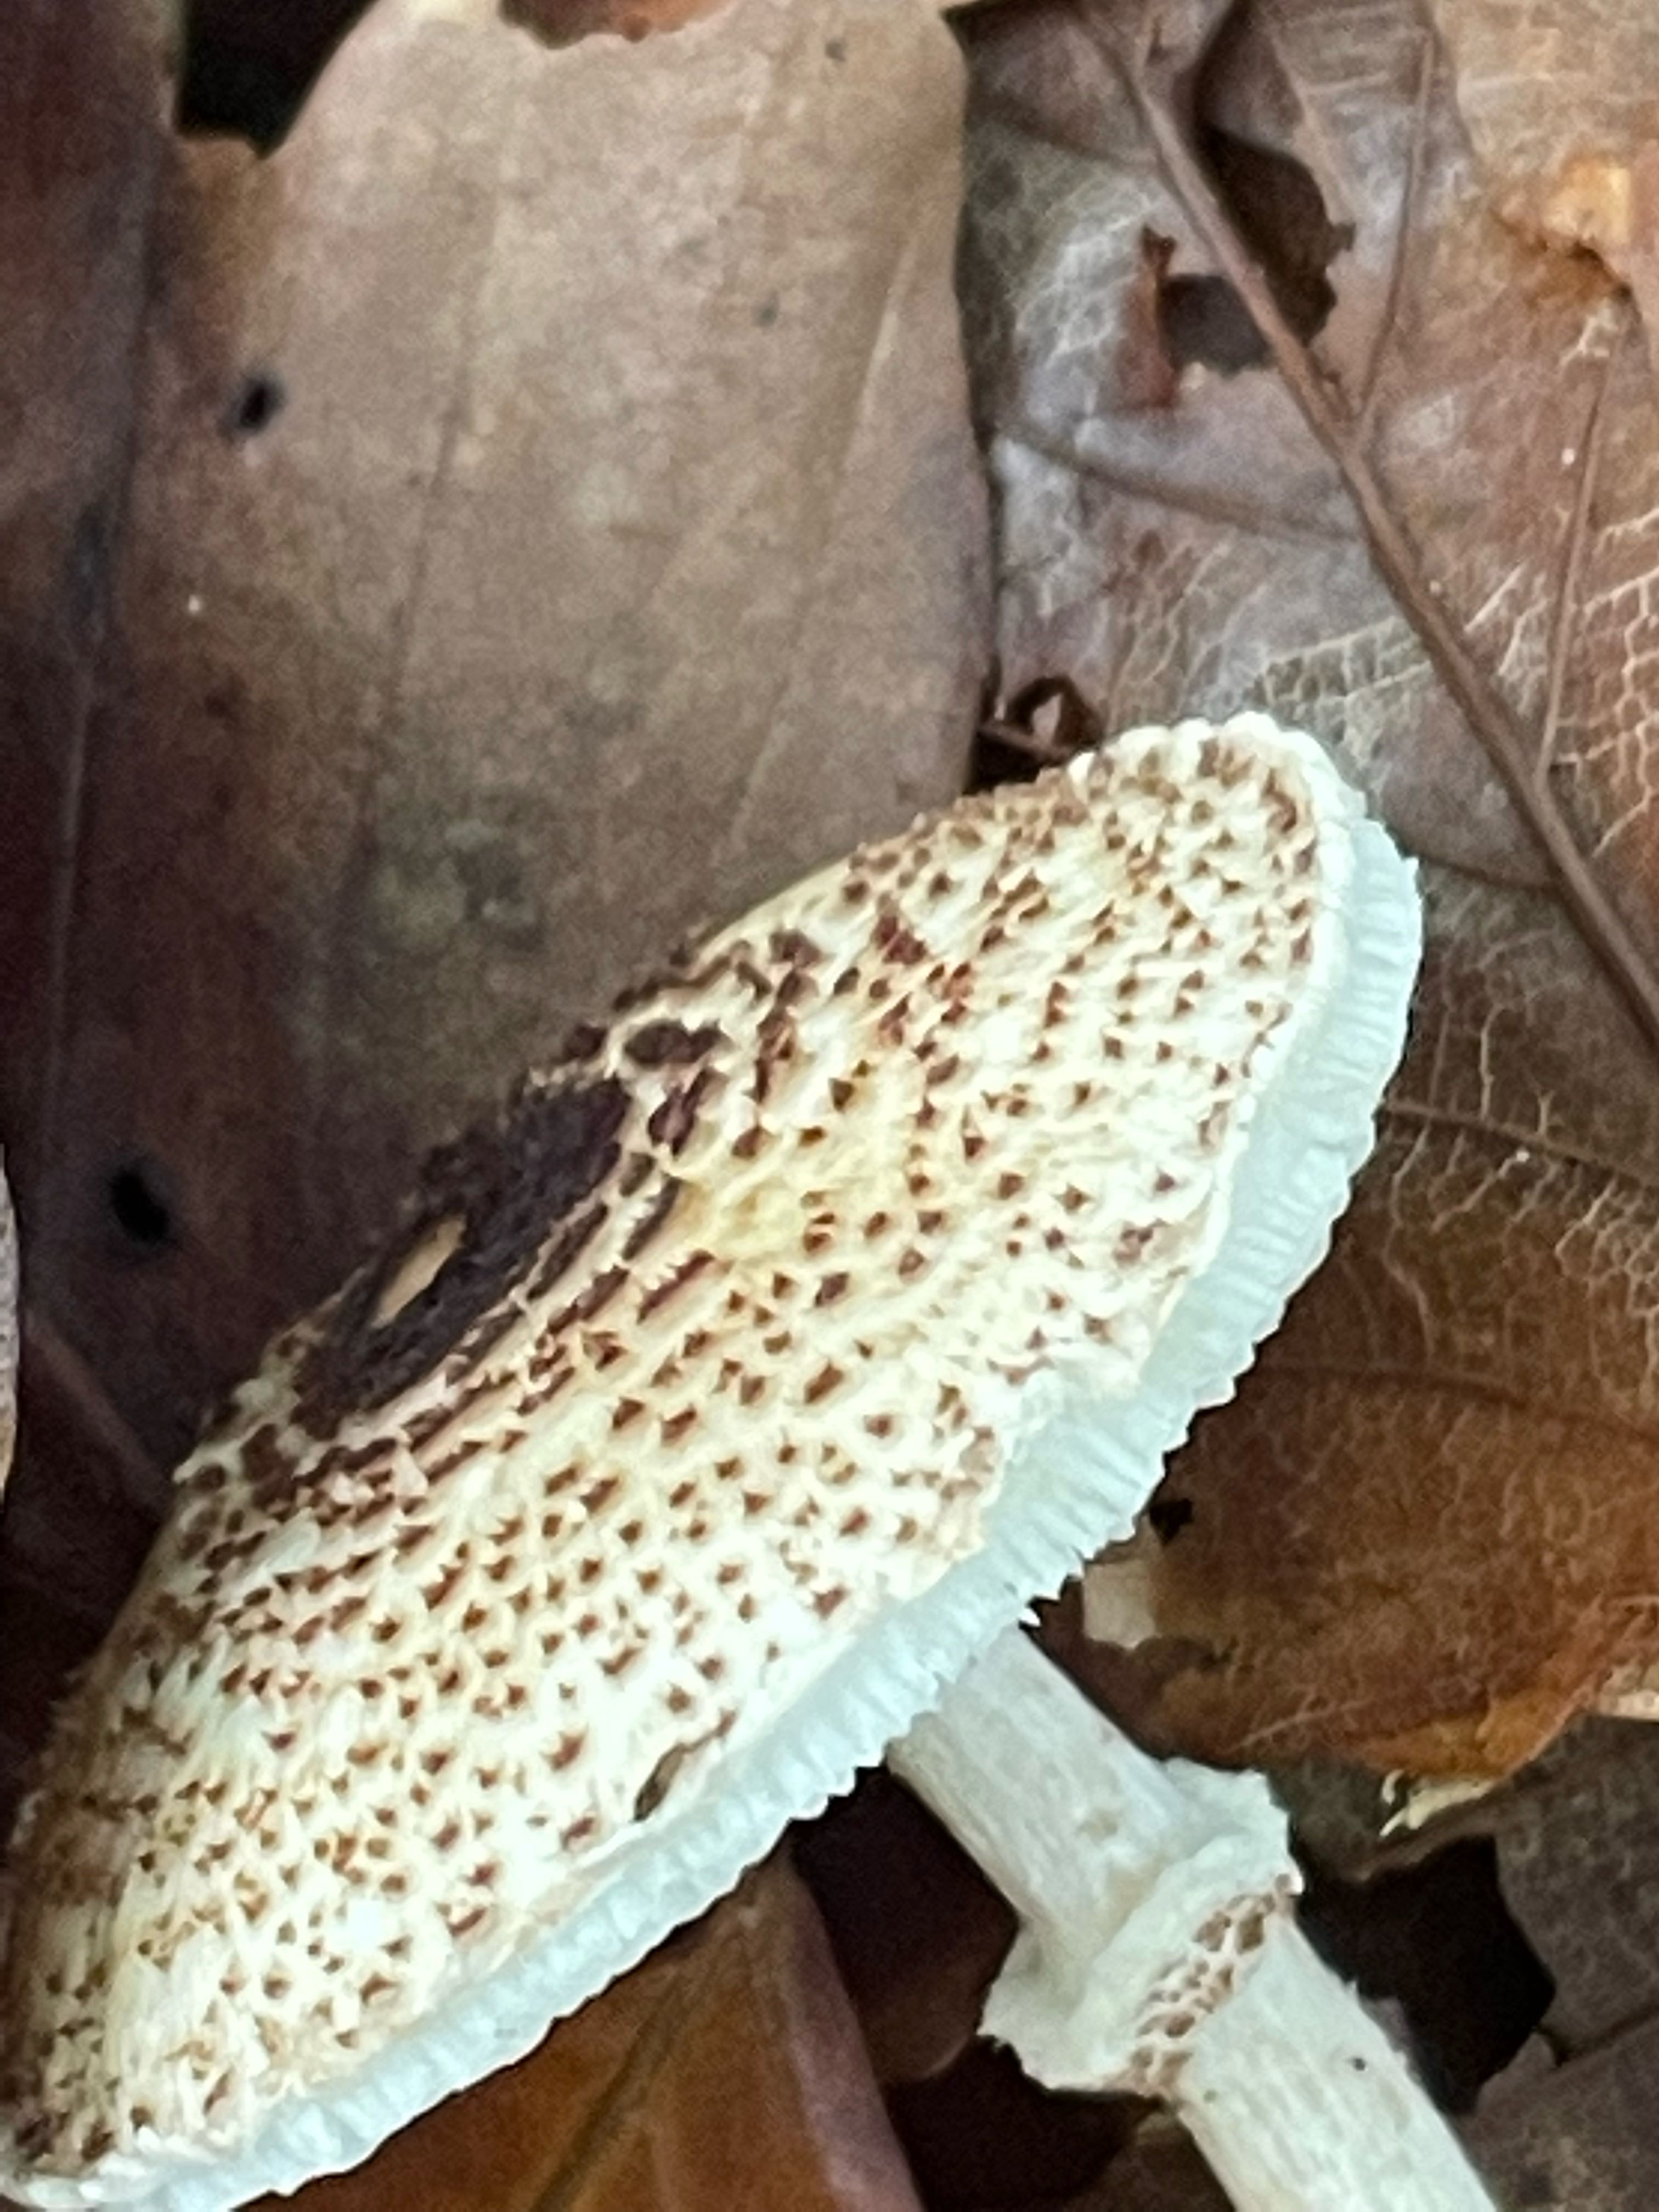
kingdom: Fungi
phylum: Basidiomycota
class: Agaricomycetes
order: Agaricales
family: Agaricaceae
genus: Lepiota
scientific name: Lepiota felina
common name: sortskællet parasolhat
